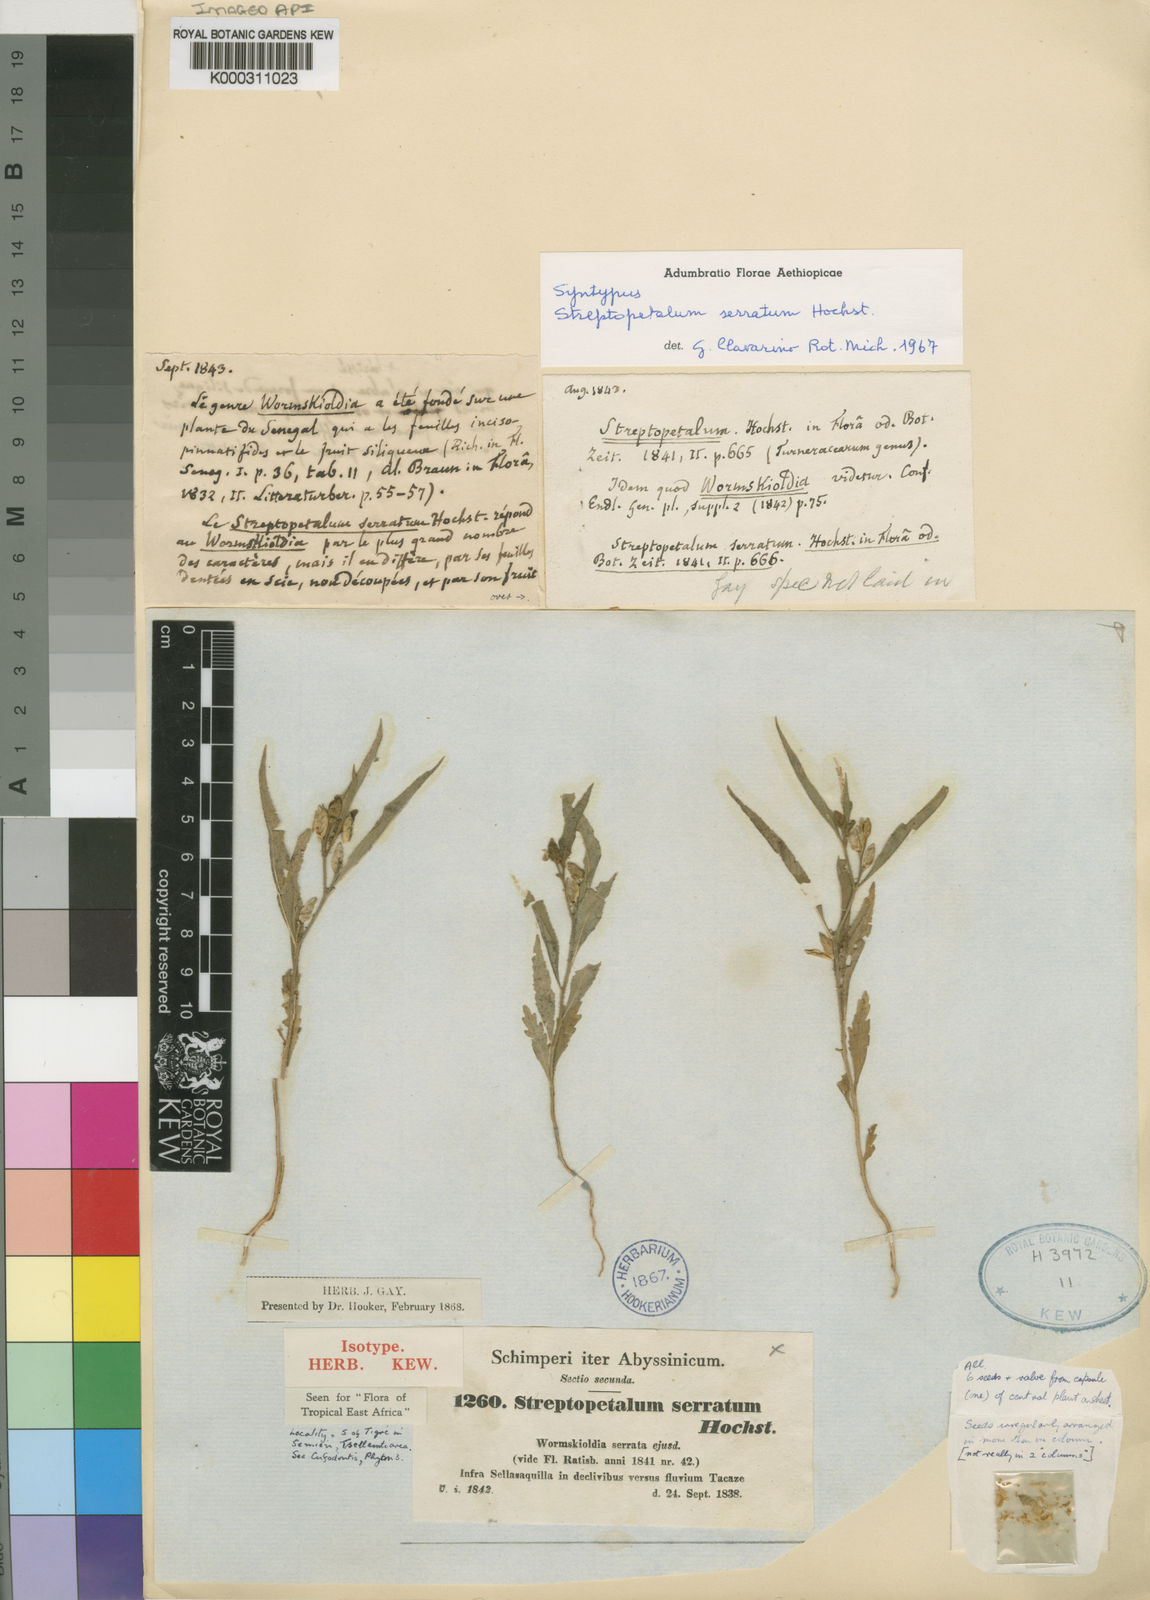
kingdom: Plantae
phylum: Tracheophyta
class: Magnoliopsida
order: Malpighiales
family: Turneraceae
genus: Streptopetalum
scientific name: Streptopetalum serratum
